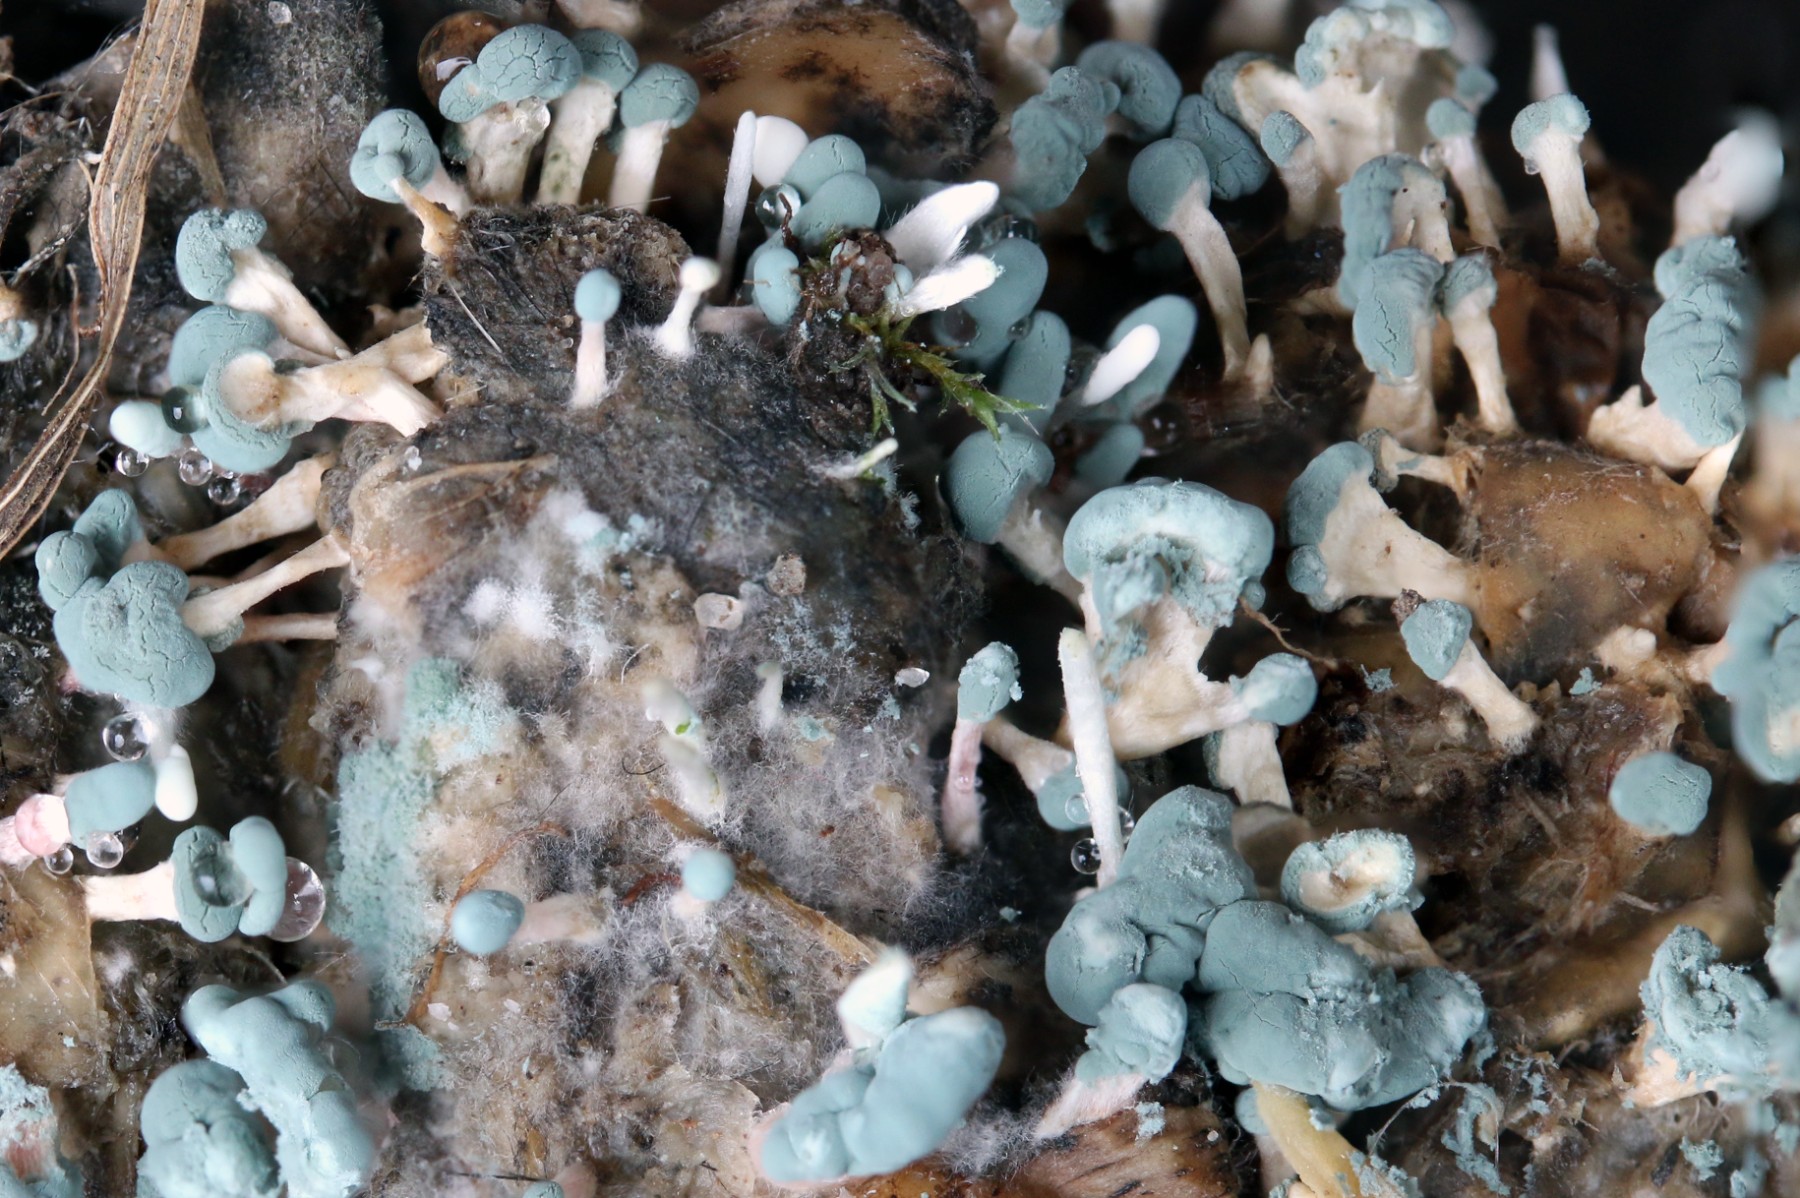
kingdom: Fungi
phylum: Ascomycota
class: Eurotiomycetes
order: Eurotiales
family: Aspergillaceae
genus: Penicillium
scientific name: Penicillium
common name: penselskimmel
